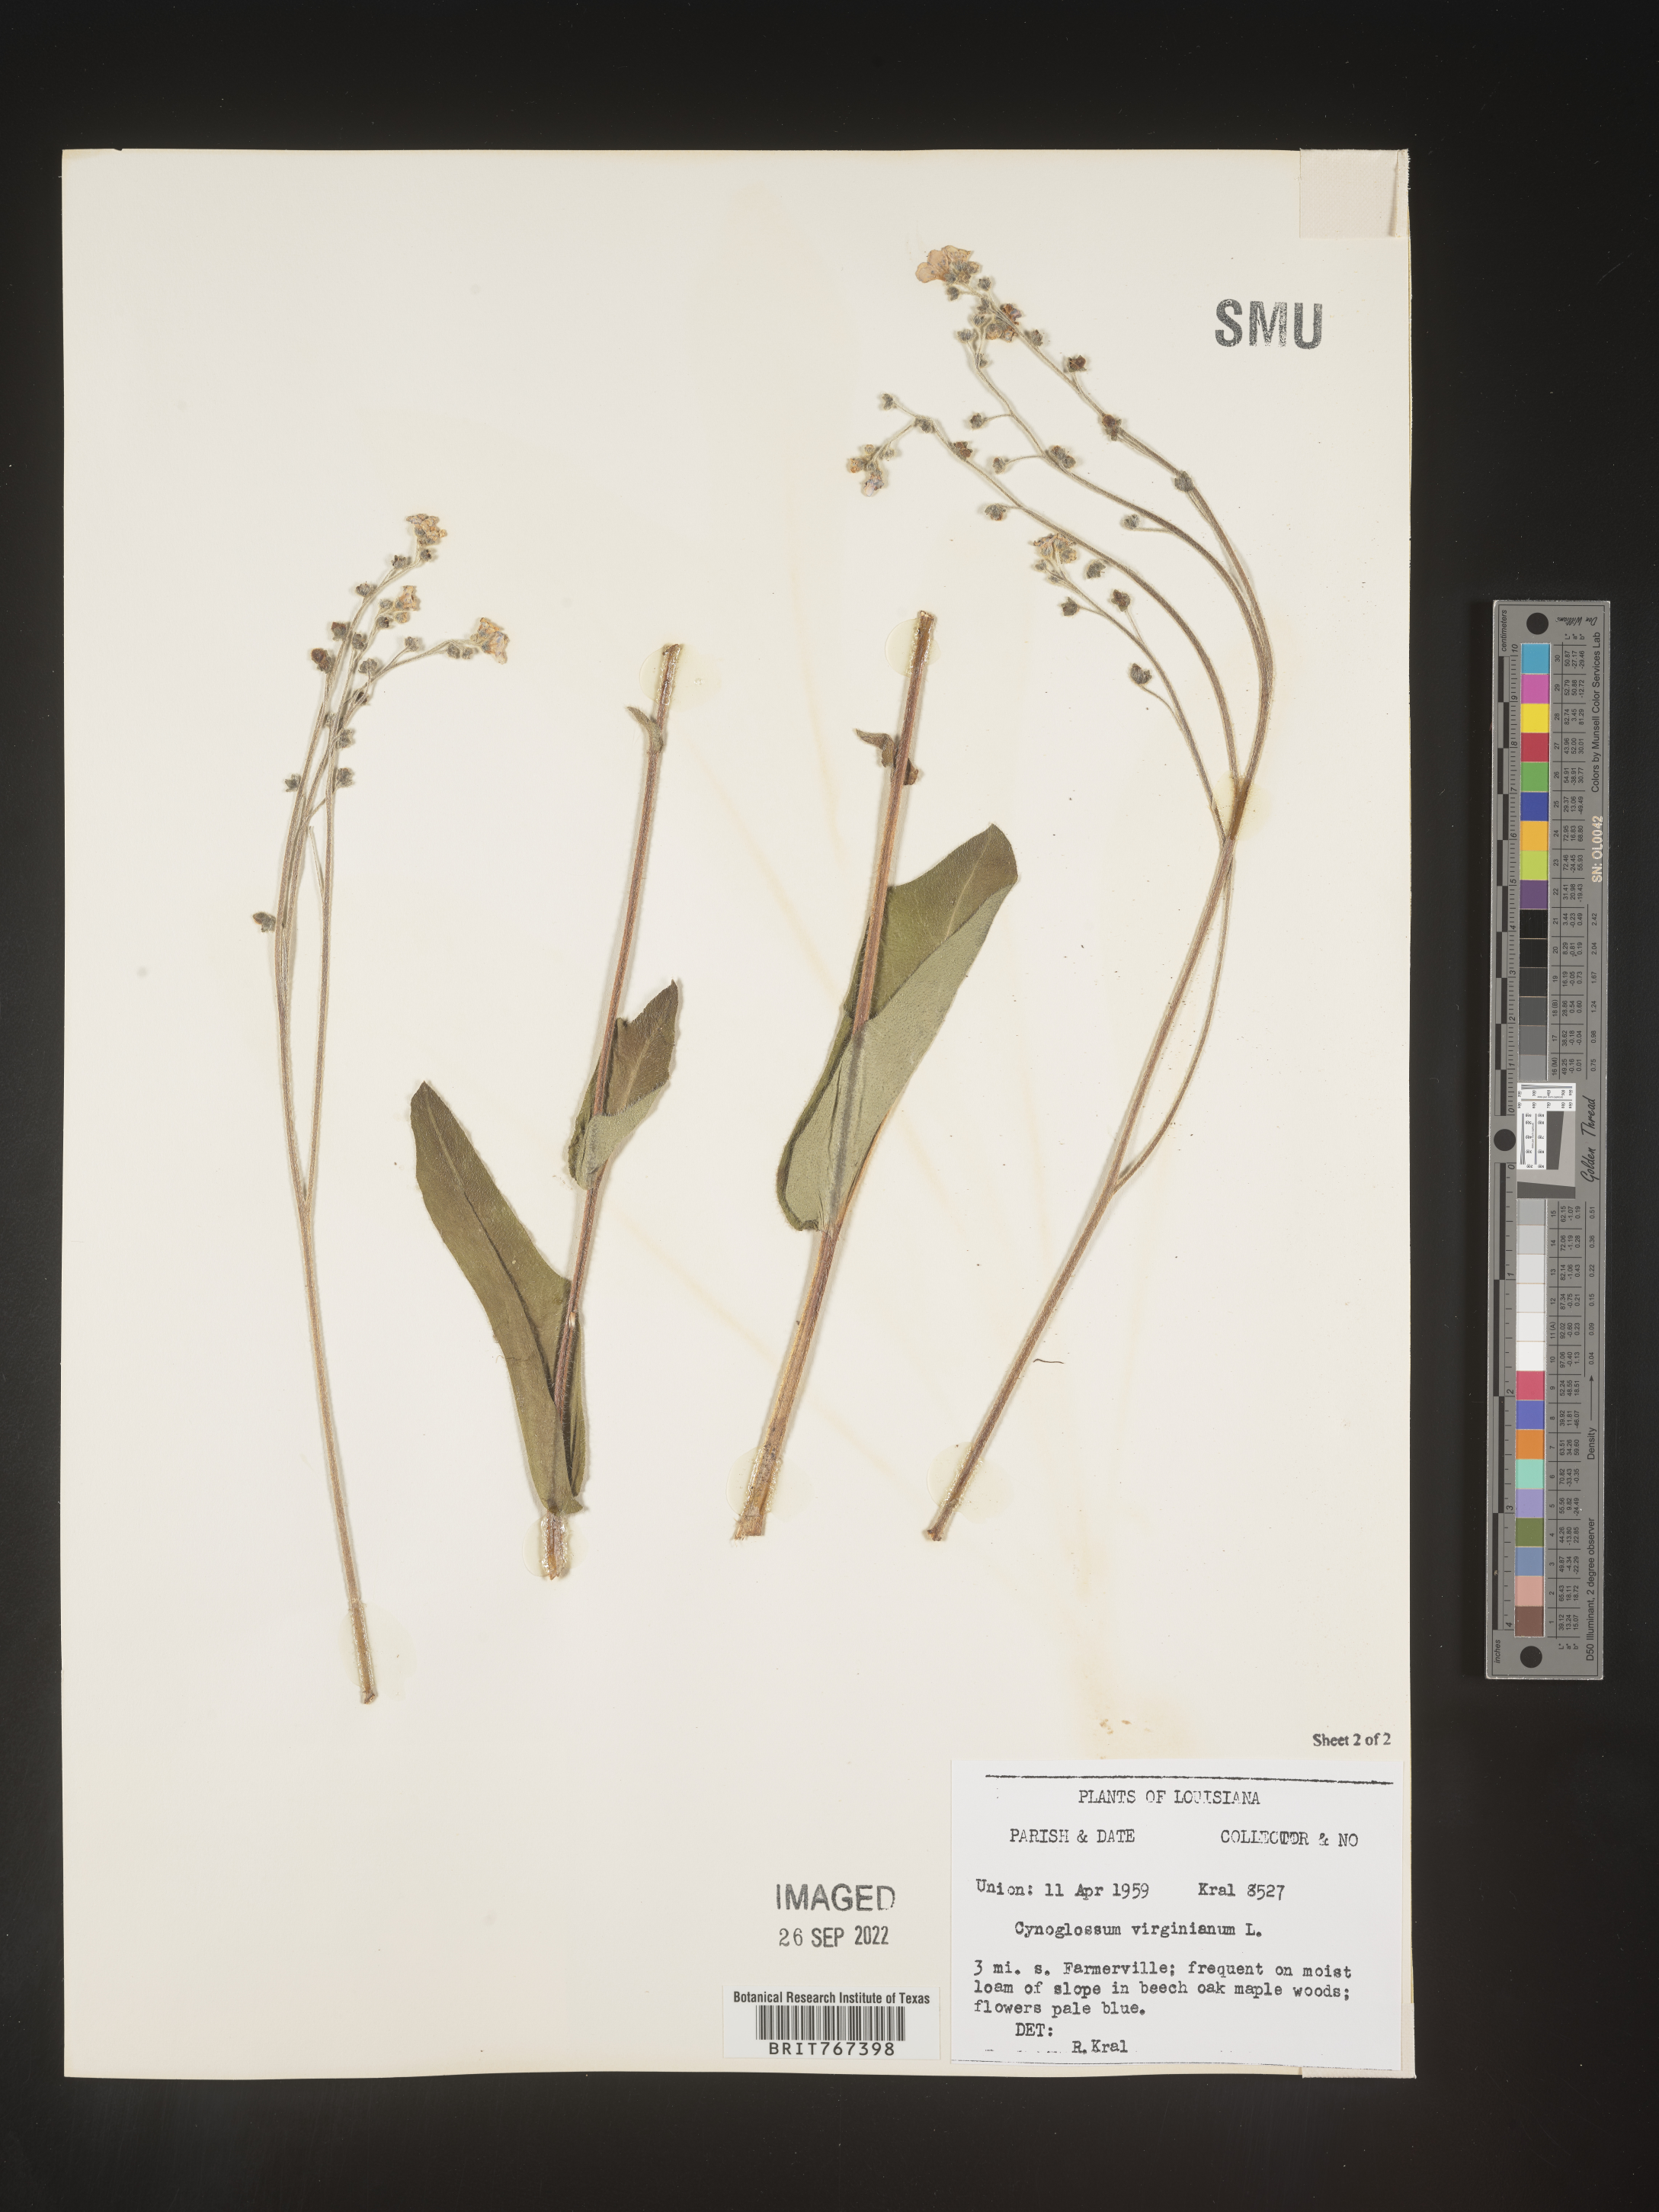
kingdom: Plantae
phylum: Tracheophyta
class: Magnoliopsida
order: Boraginales
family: Boraginaceae
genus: Andersonglossum
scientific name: Andersonglossum virginianum
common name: Wild comfrey
